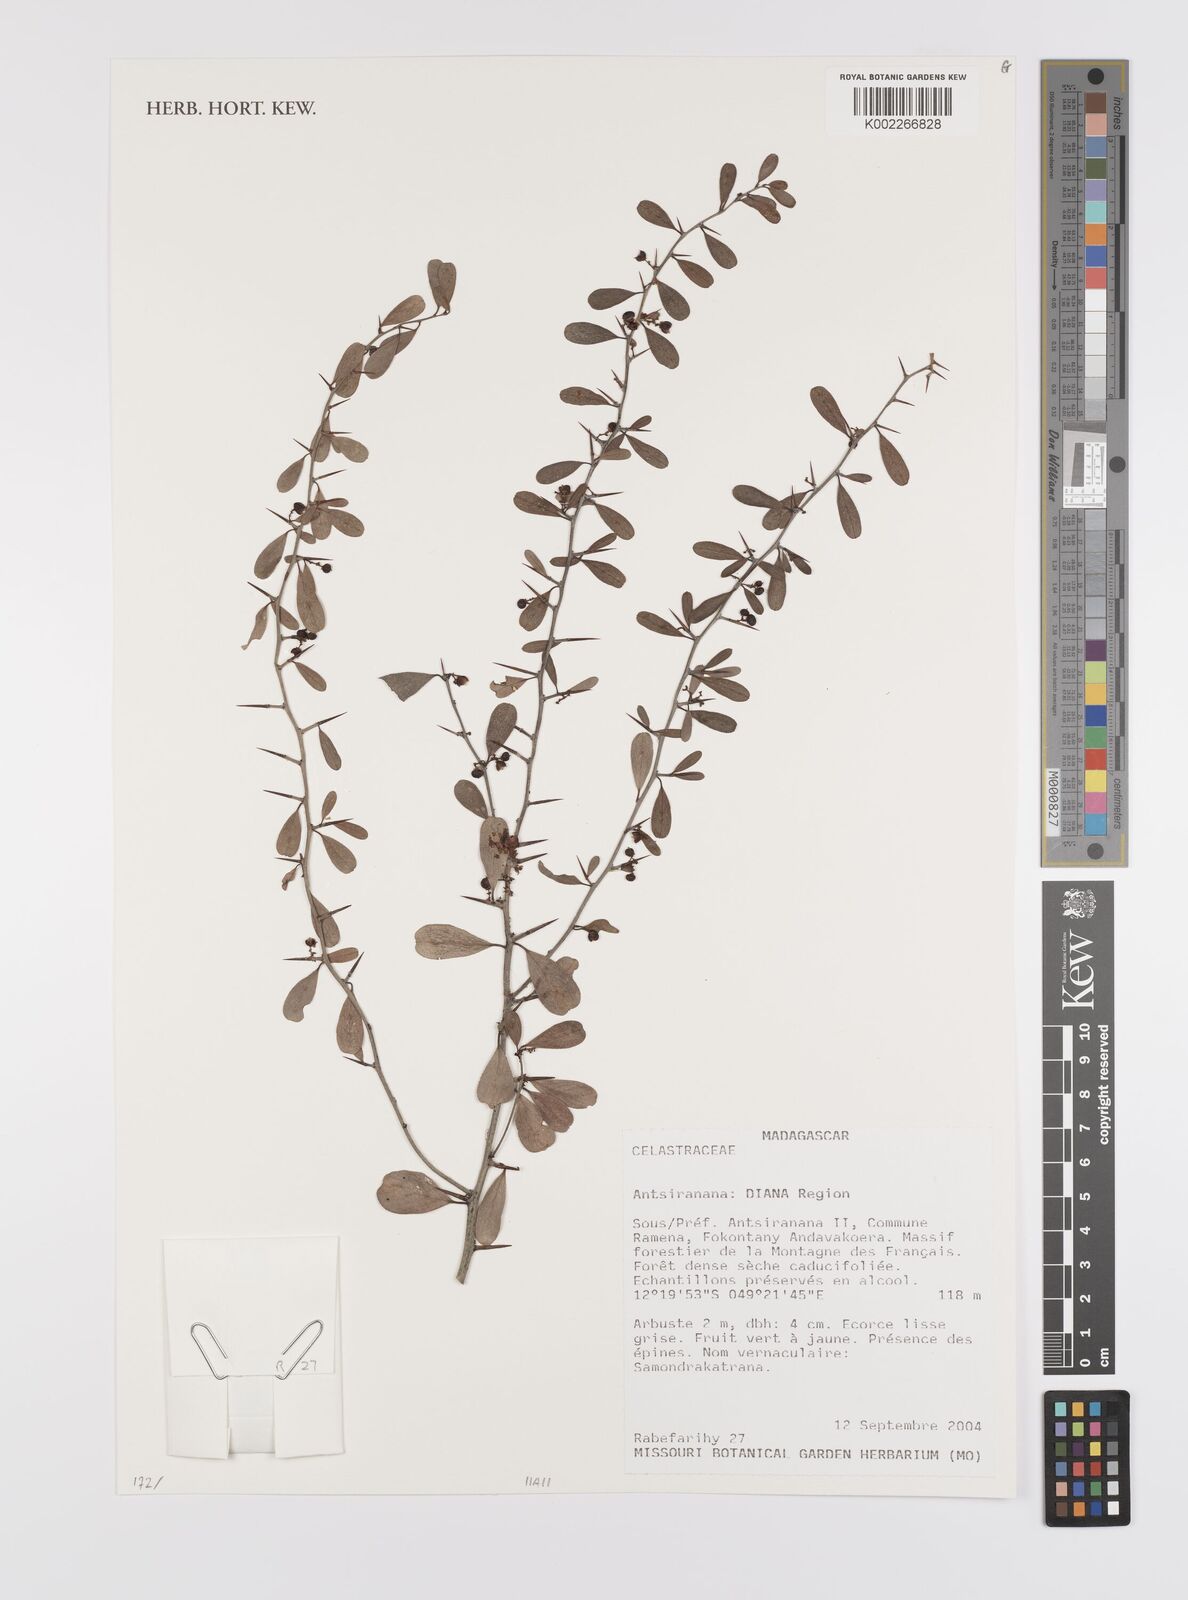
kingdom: Plantae
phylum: Tracheophyta
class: Magnoliopsida
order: Celastrales
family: Celastraceae
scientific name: Celastraceae
